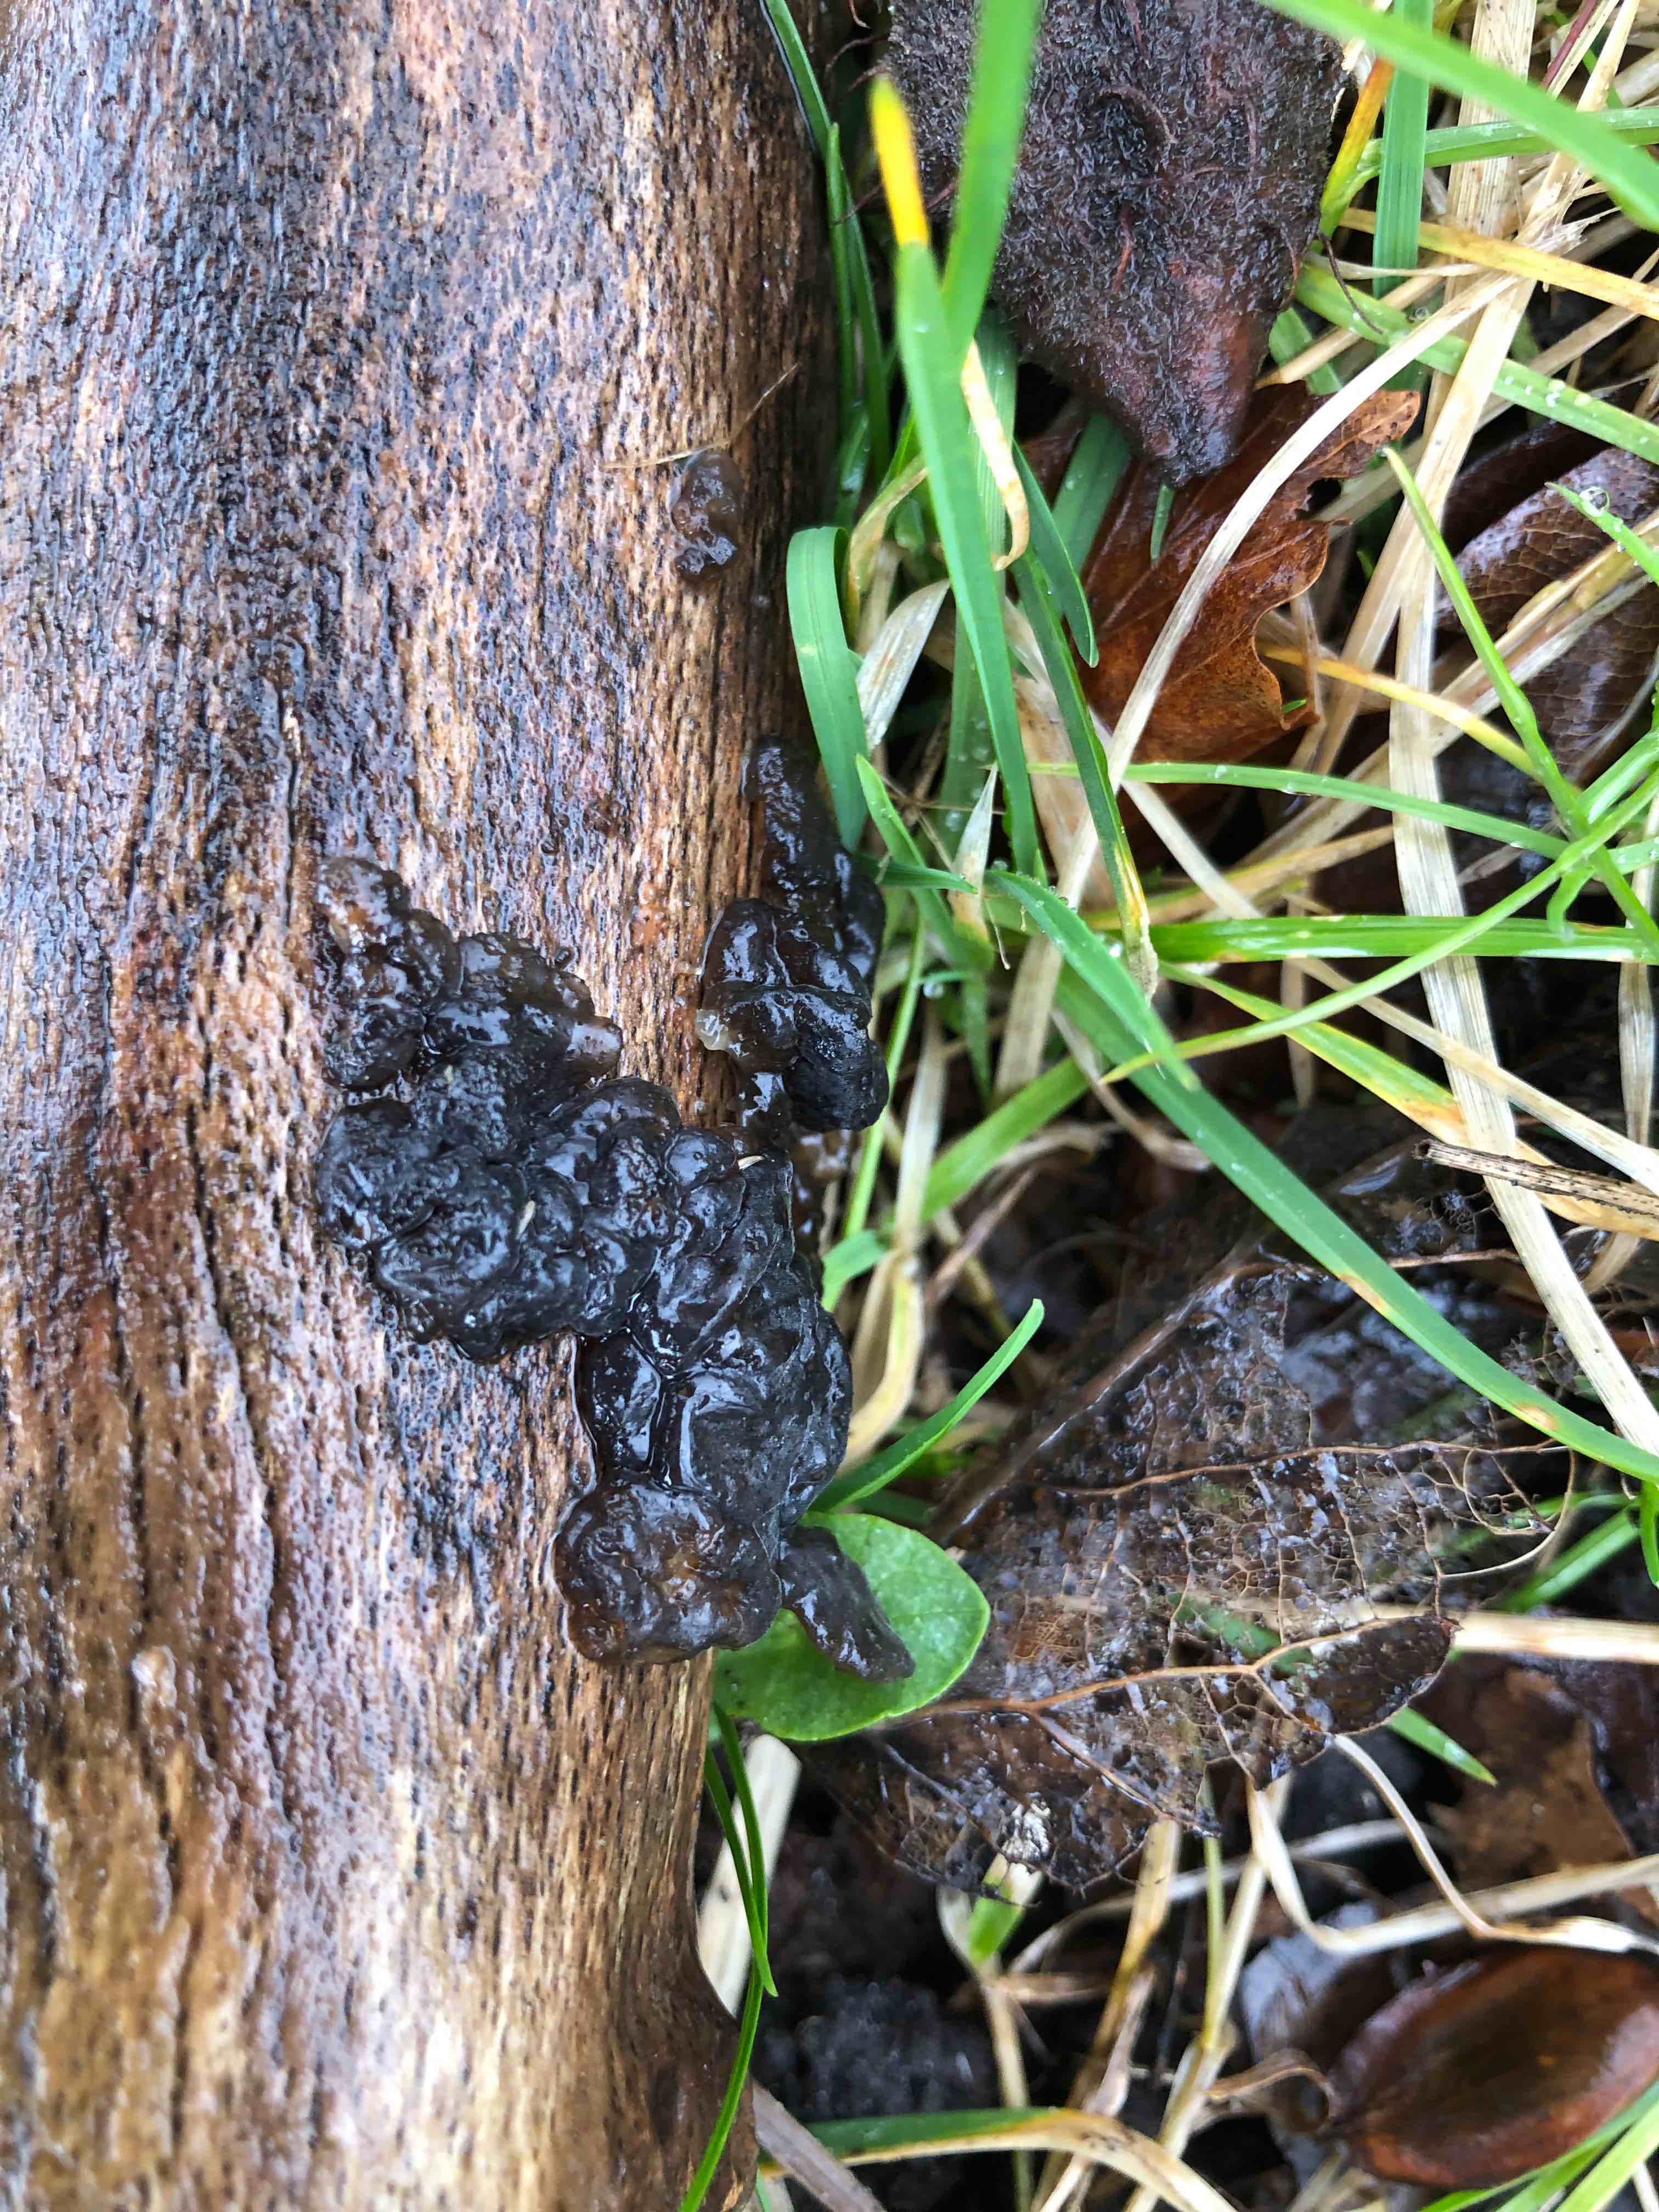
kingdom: Fungi
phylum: Basidiomycota
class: Agaricomycetes
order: Auriculariales
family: Auriculariaceae
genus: Exidia
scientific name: Exidia nigricans
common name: almindelig bævretop
